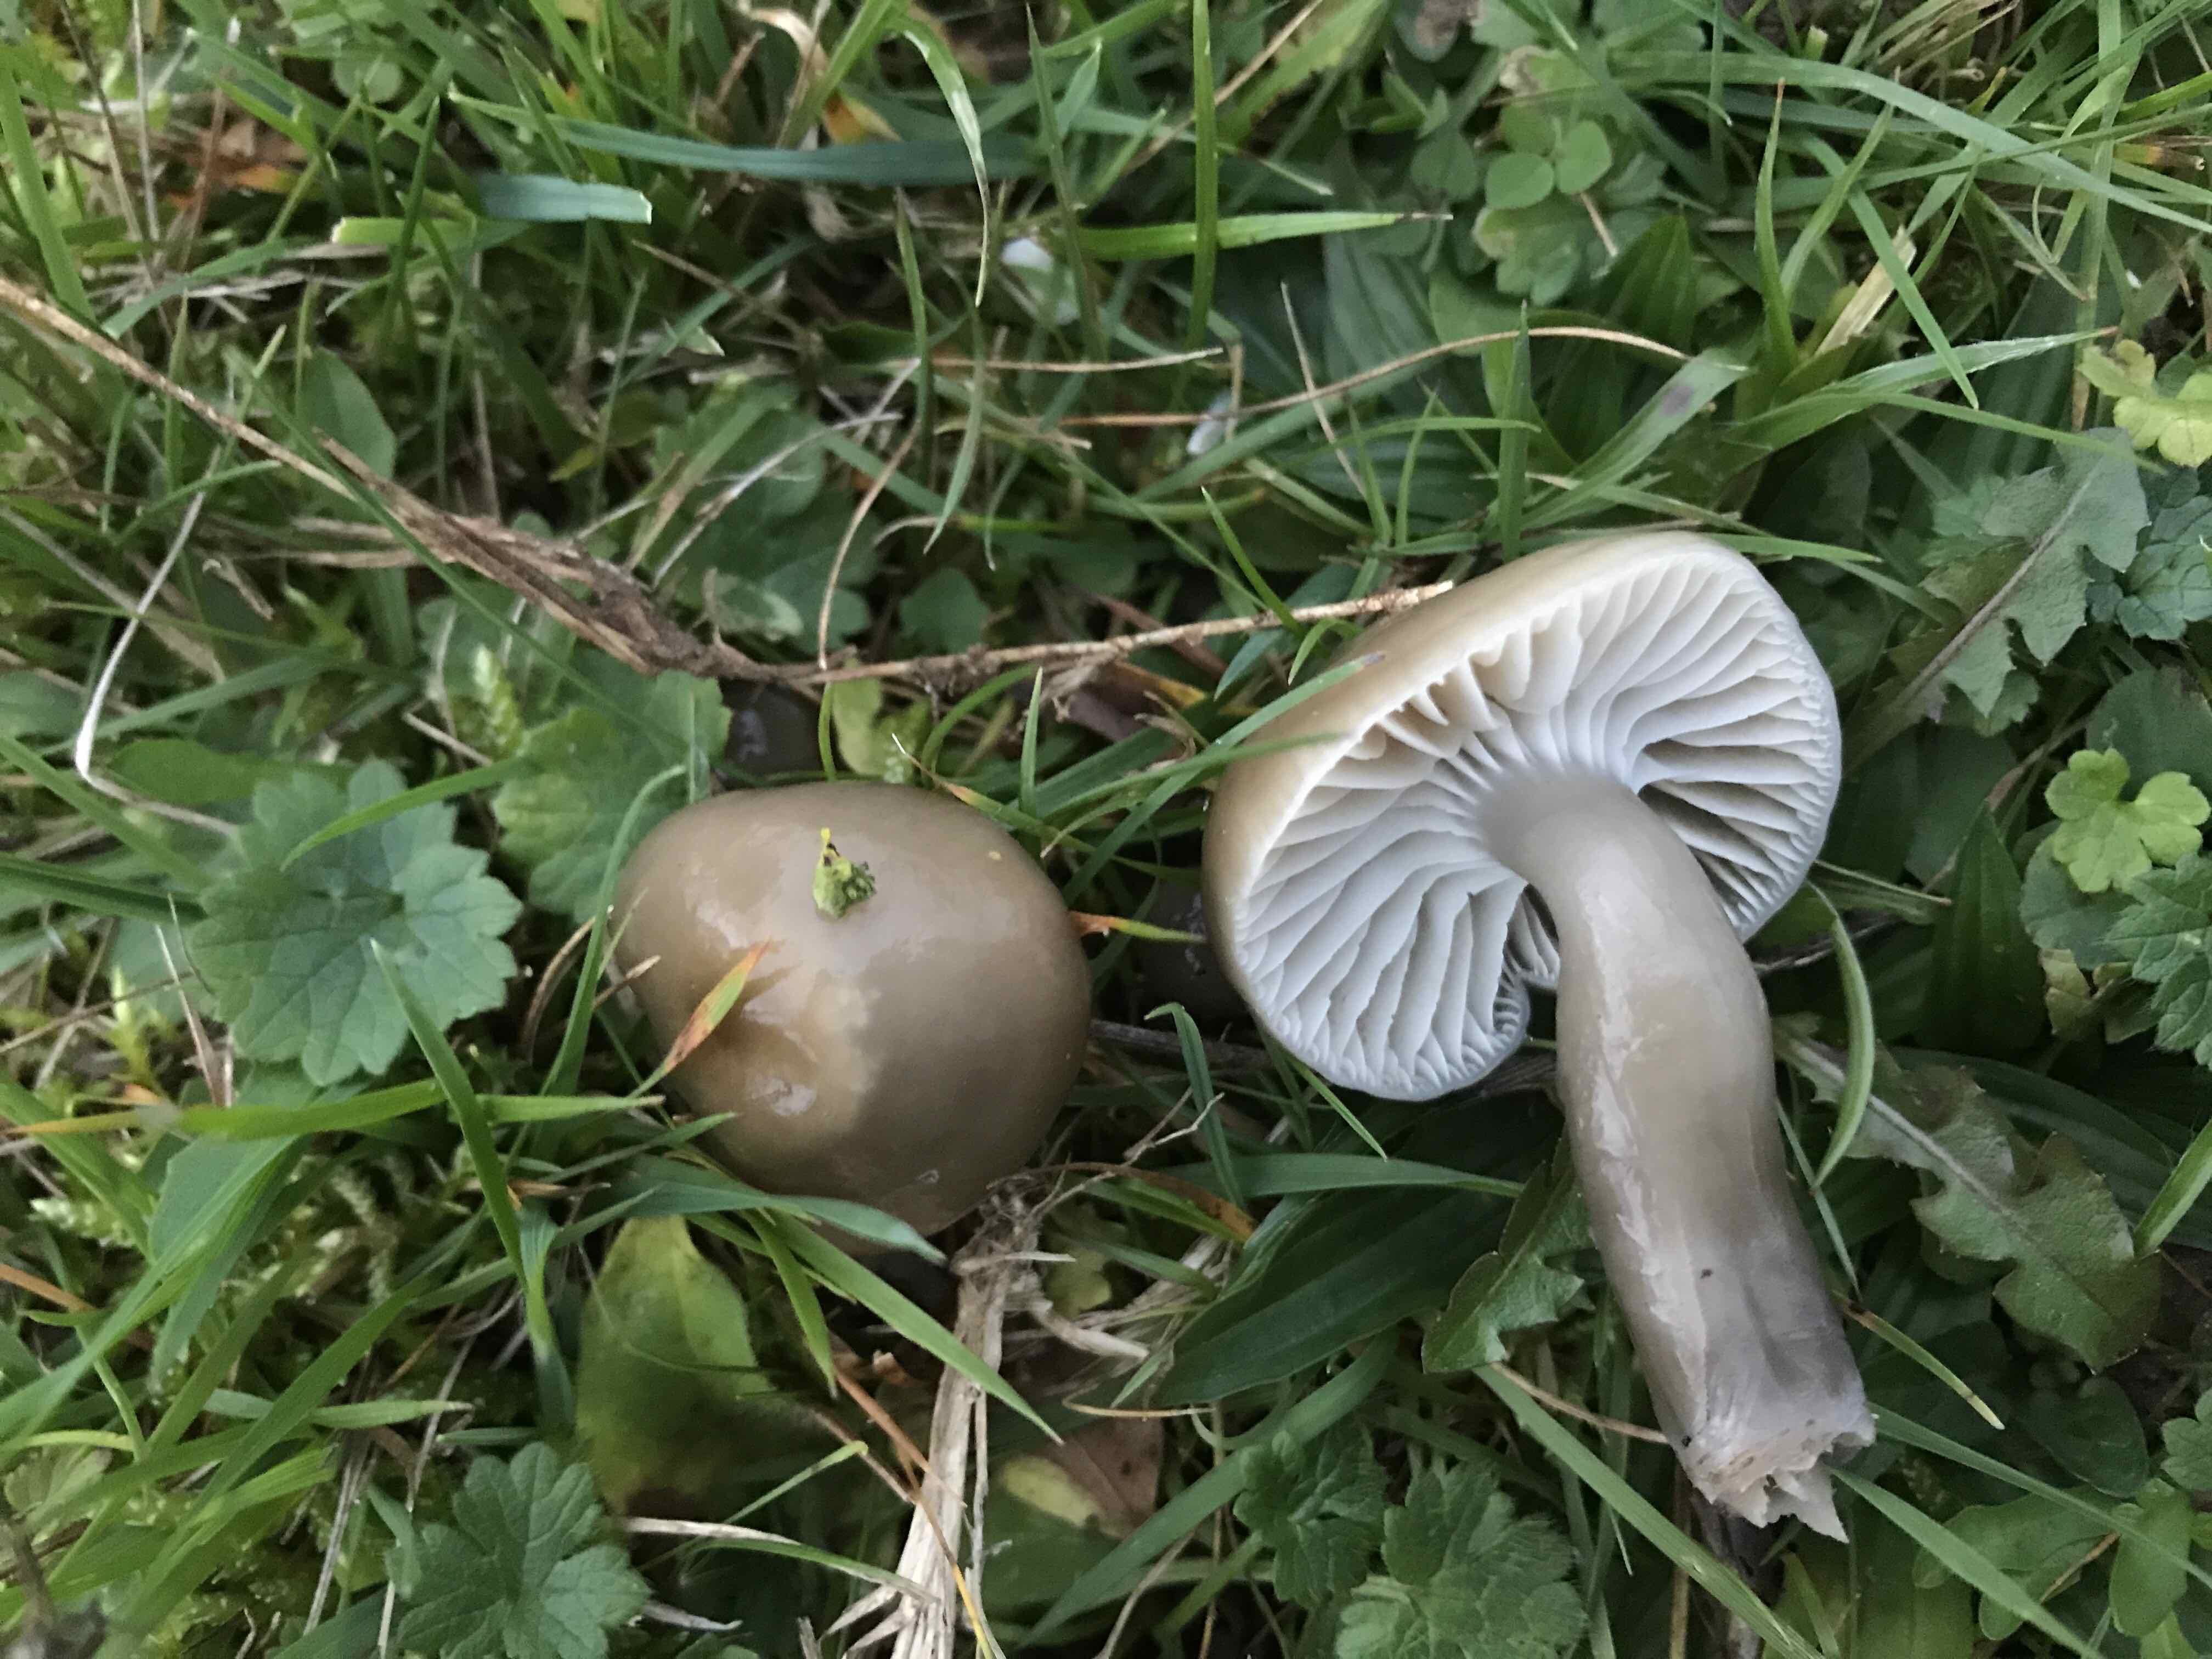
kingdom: Fungi
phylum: Basidiomycota
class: Agaricomycetes
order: Agaricales
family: Hygrophoraceae
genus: Gliophorus
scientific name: Gliophorus irrigatus
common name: slimet vokshat
